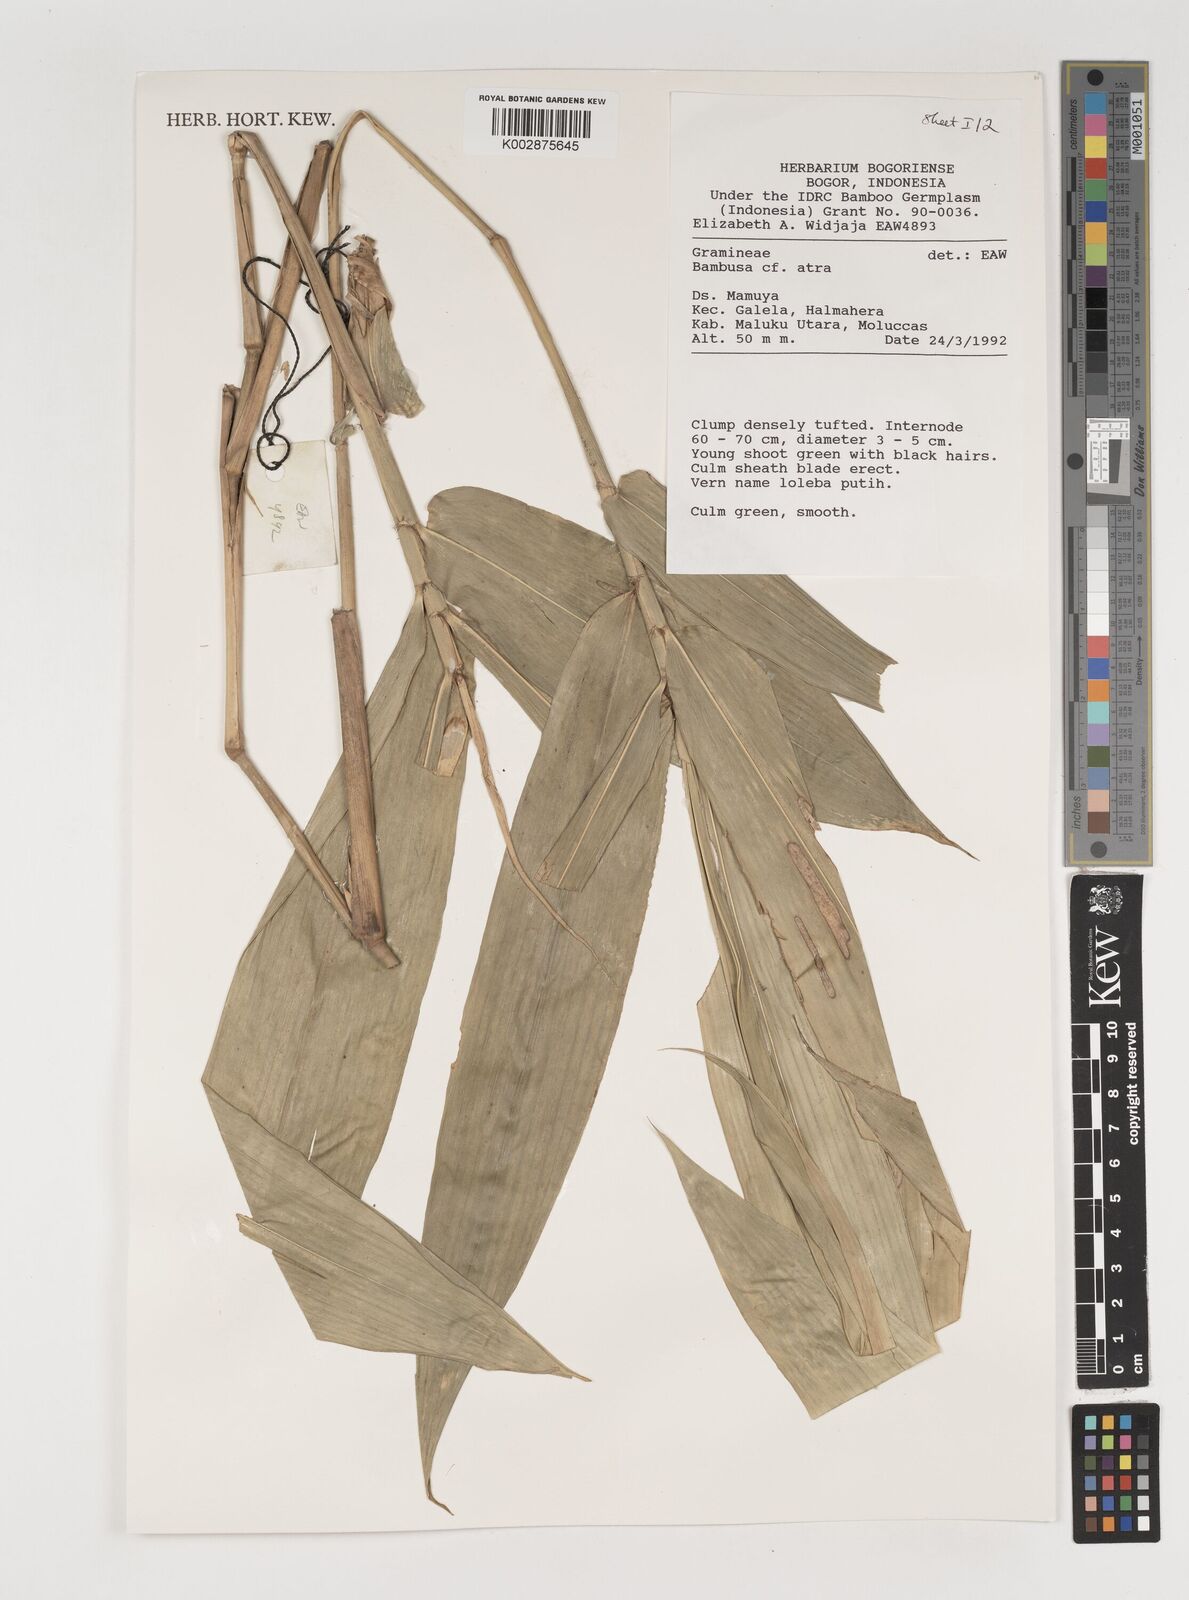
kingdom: Plantae
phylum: Tracheophyta
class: Liliopsida
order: Poales
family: Poaceae
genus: Neololeba
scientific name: Neololeba atra
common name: Cape bamboo
